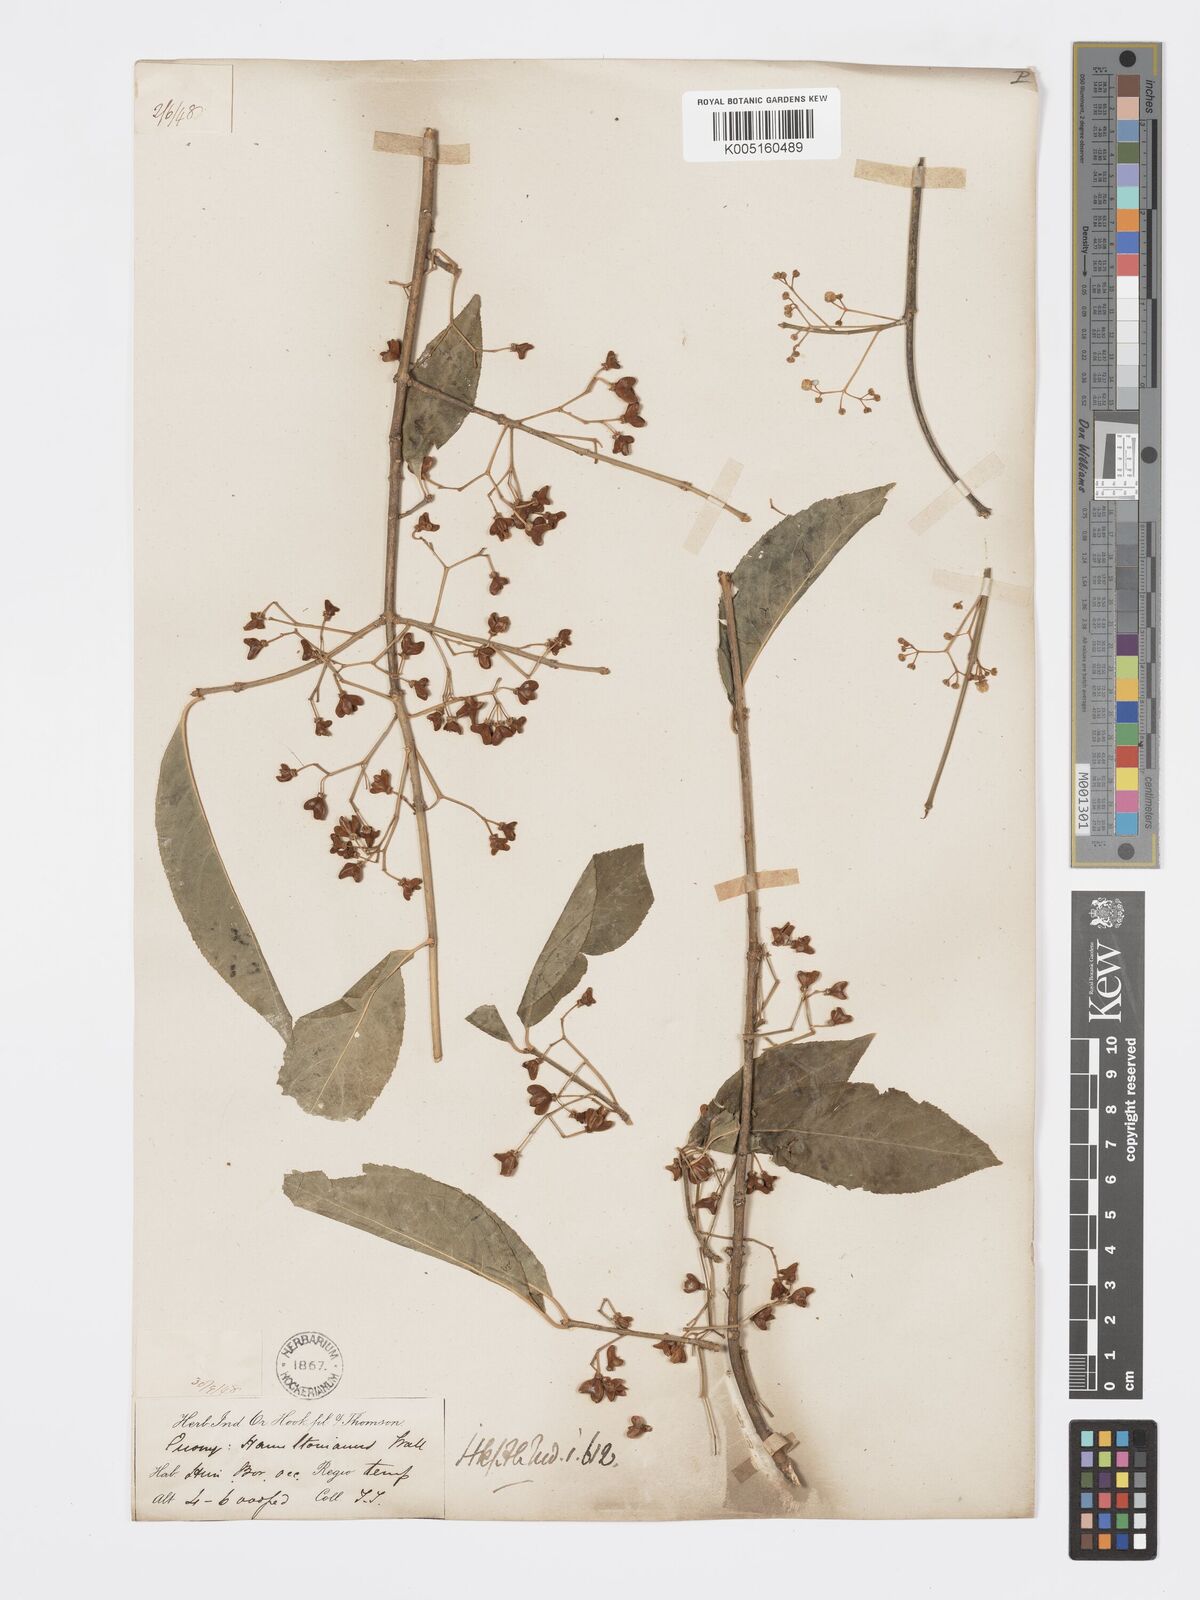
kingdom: Plantae
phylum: Tracheophyta
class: Magnoliopsida
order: Celastrales
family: Celastraceae
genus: Euonymus
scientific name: Euonymus
